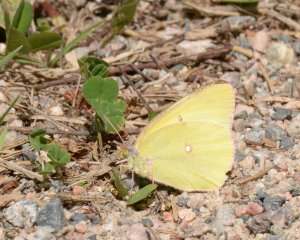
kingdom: Animalia
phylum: Arthropoda
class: Insecta
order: Lepidoptera
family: Pieridae
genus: Colias
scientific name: Colias interior
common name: Pink-edged Sulphur
